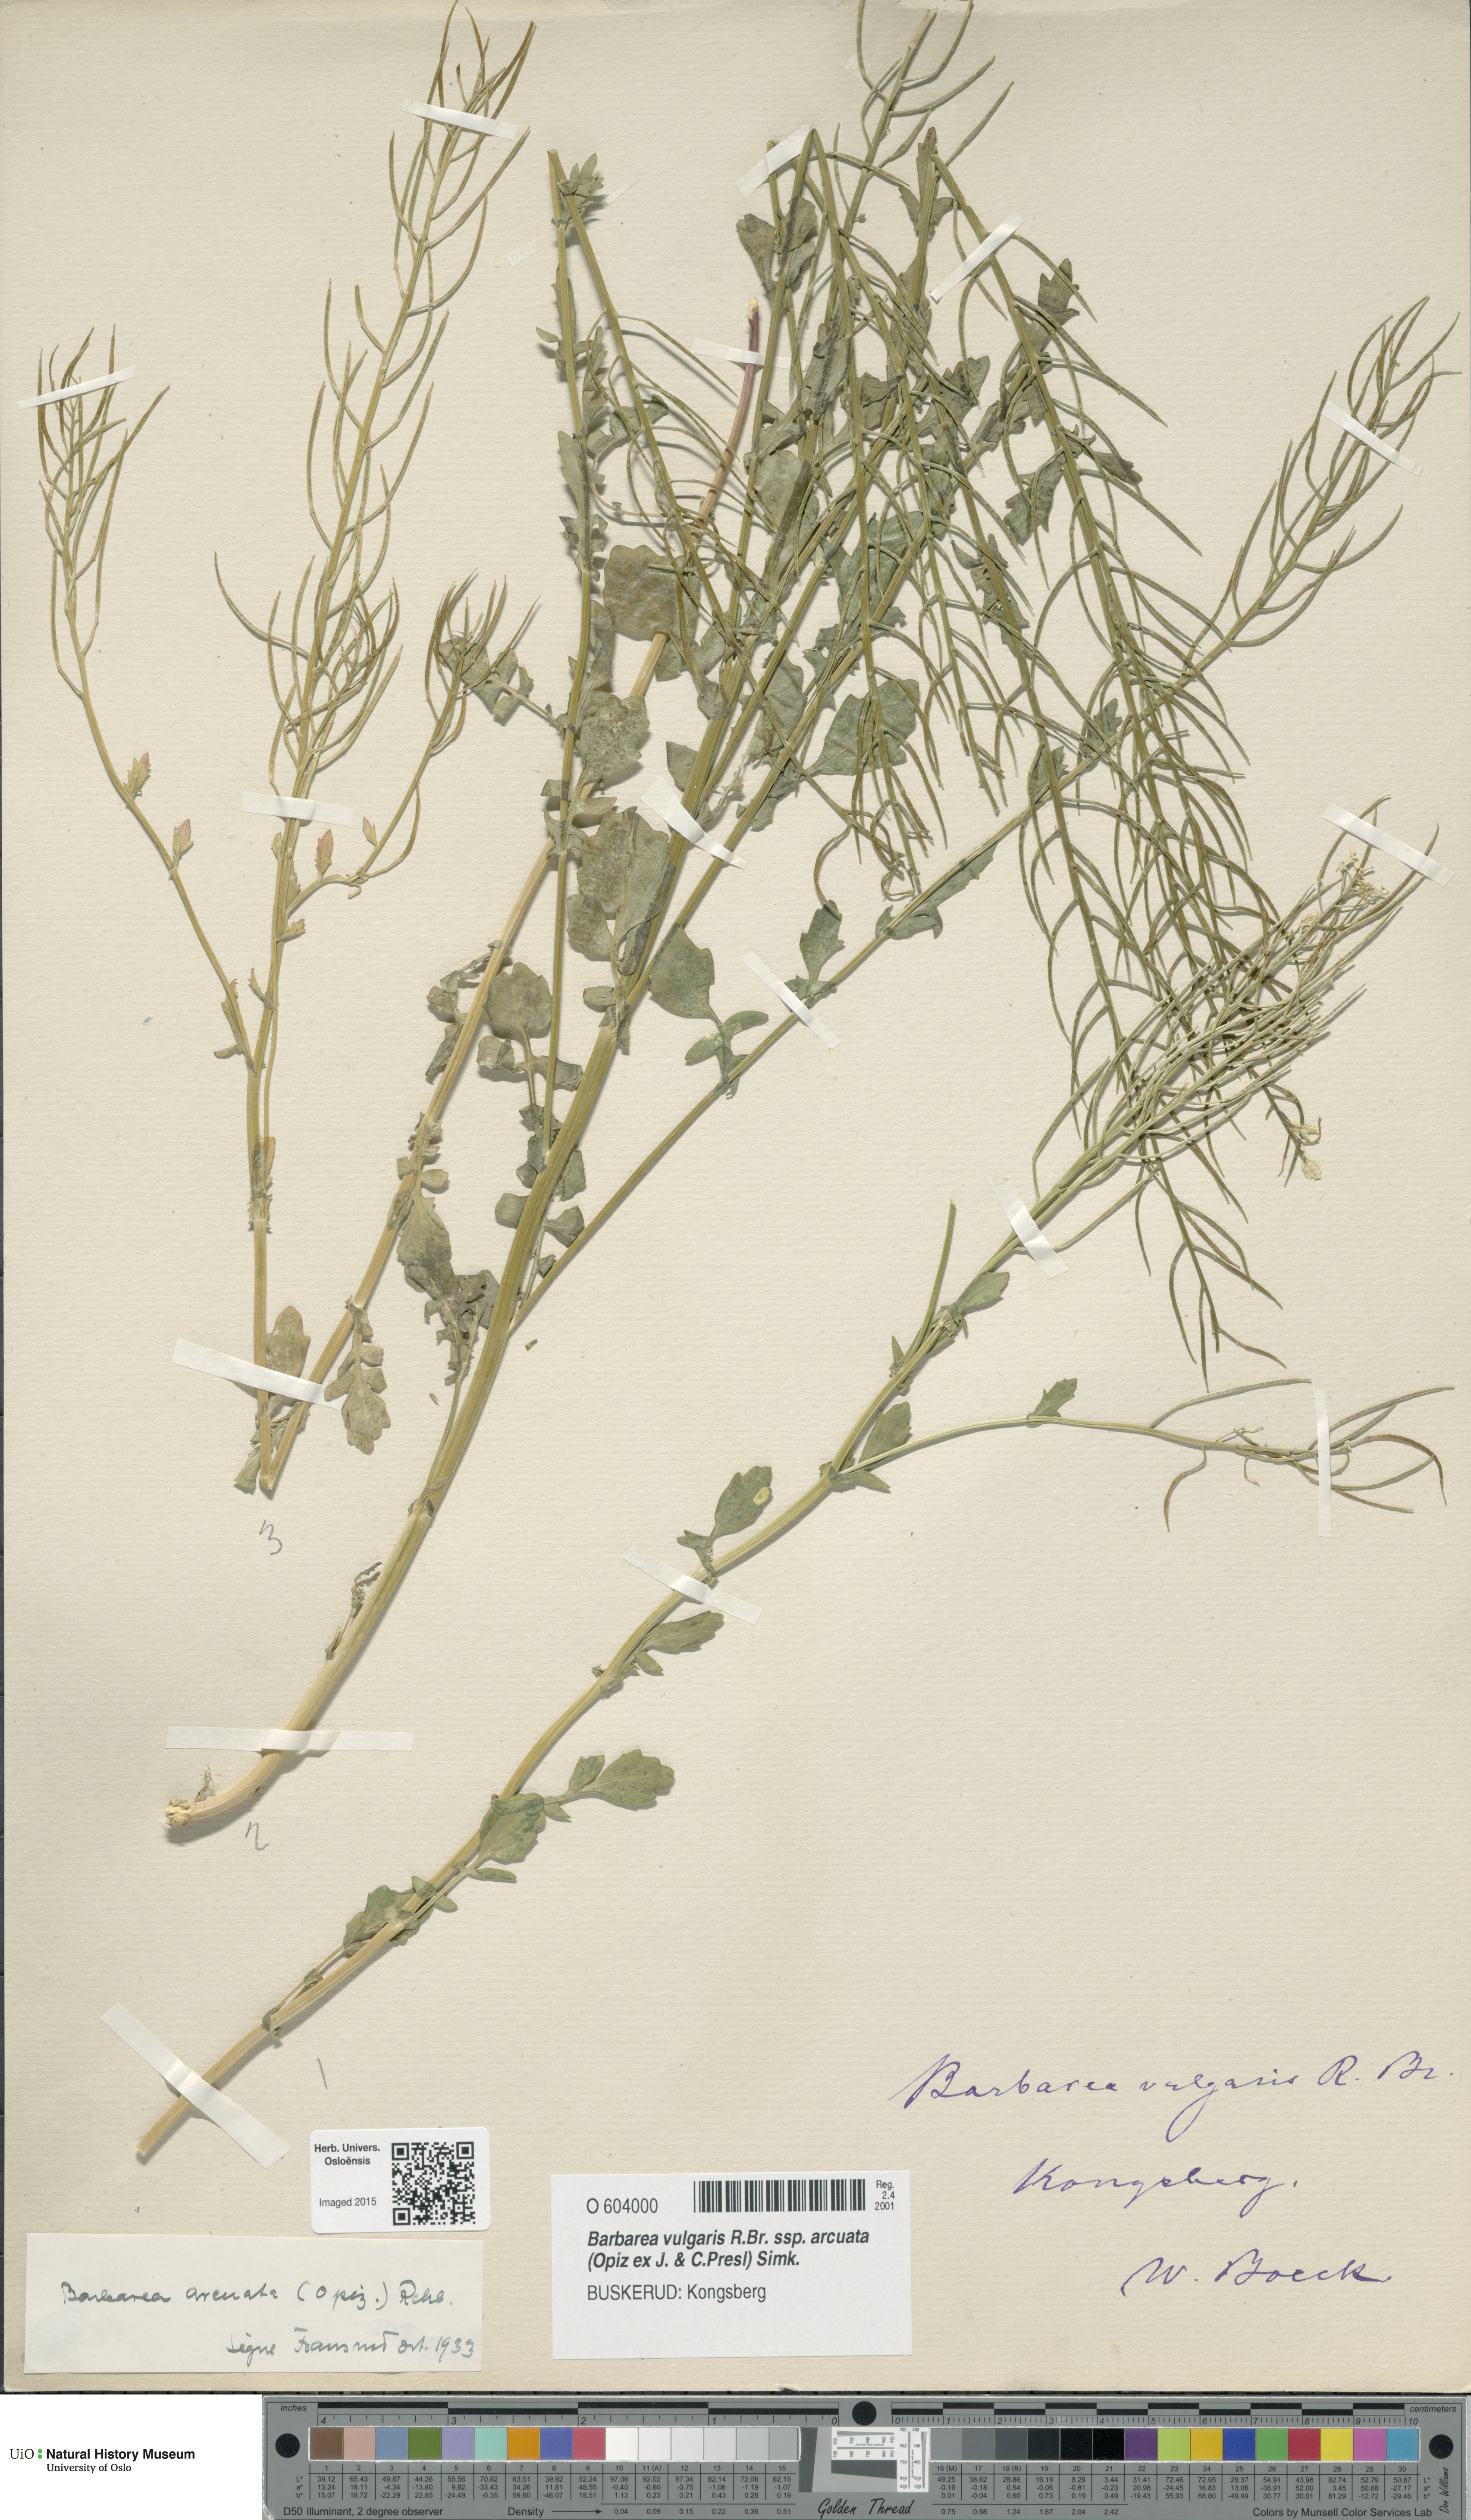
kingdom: Plantae
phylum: Tracheophyta
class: Magnoliopsida
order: Brassicales
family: Brassicaceae
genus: Barbarea
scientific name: Barbarea vulgaris
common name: Cressy-greens
